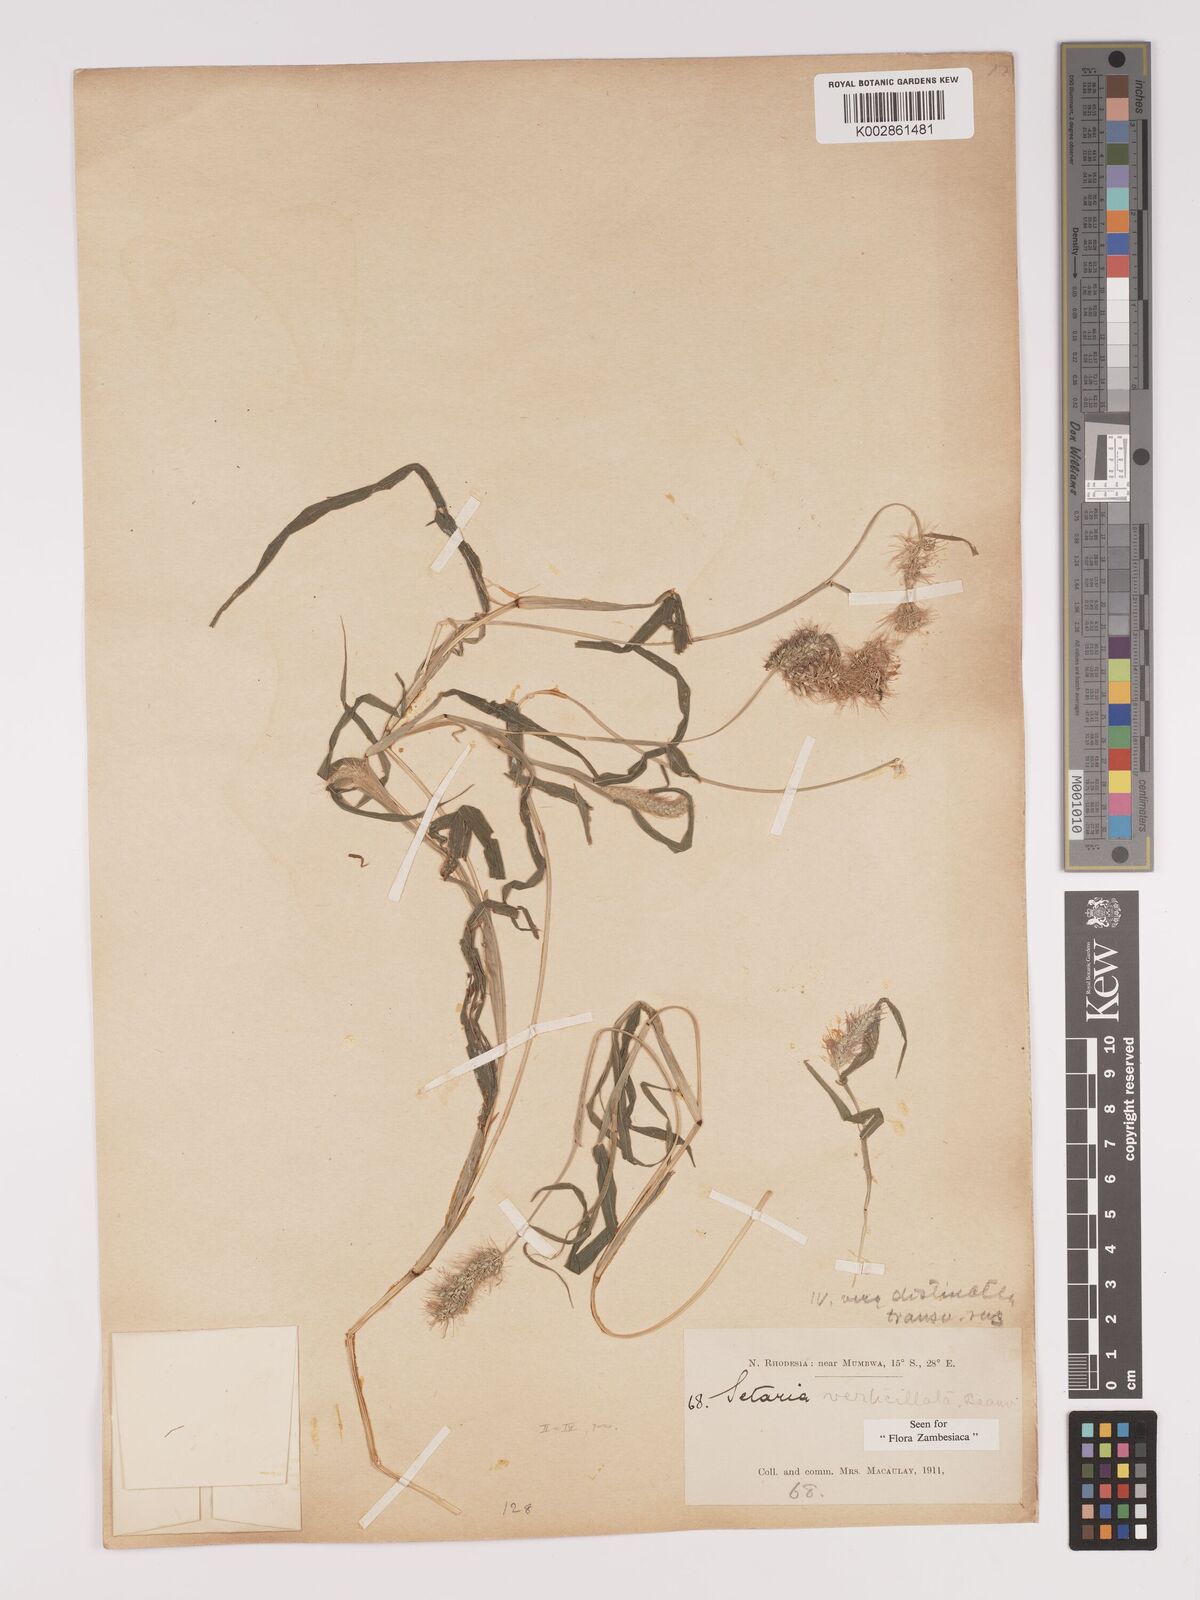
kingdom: Plantae
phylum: Tracheophyta
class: Liliopsida
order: Poales
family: Poaceae
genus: Setaria
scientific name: Setaria verticillata
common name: Hooked bristlegrass
